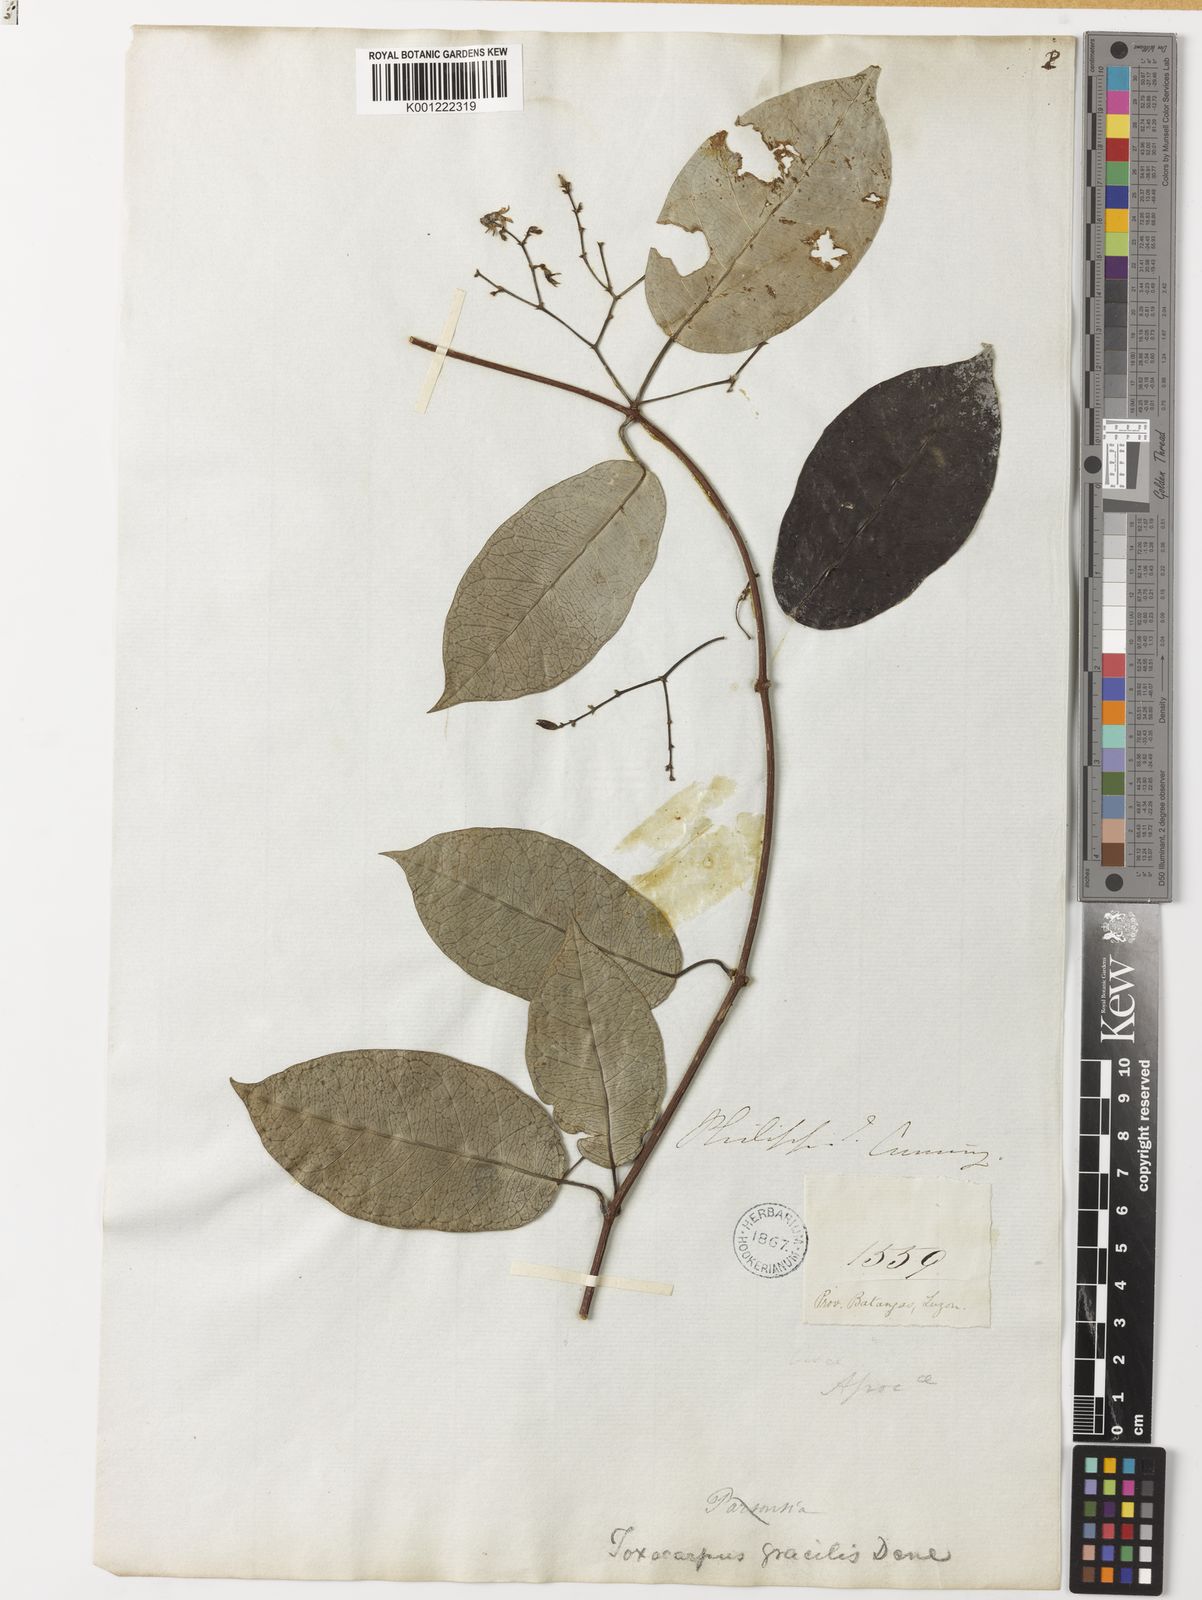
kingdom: Plantae
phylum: Tracheophyta
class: Magnoliopsida
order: Gentianales
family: Apocynaceae
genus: Toxocarpus
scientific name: Toxocarpus glaucus
